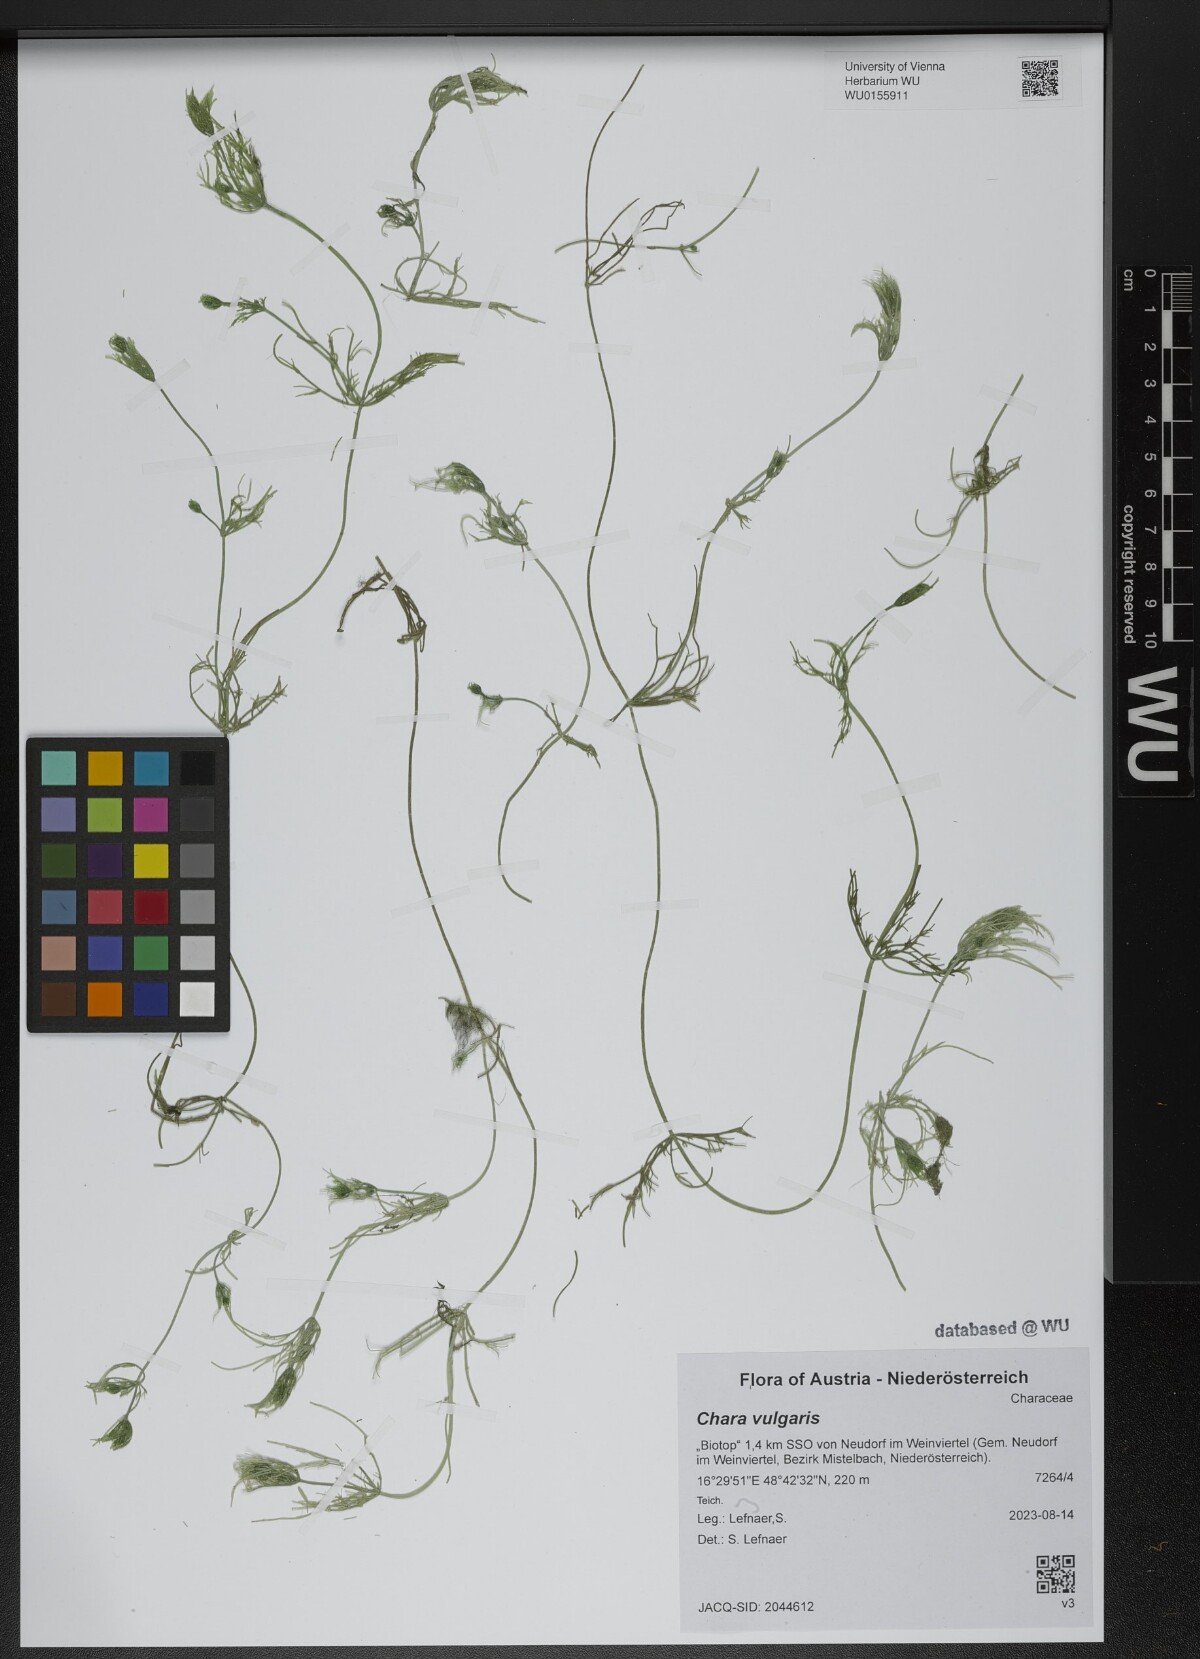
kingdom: Plantae
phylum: Charophyta
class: Charophyceae
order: Charales
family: Characeae
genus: Chara
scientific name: Chara vulgaris
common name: Common stonewort
